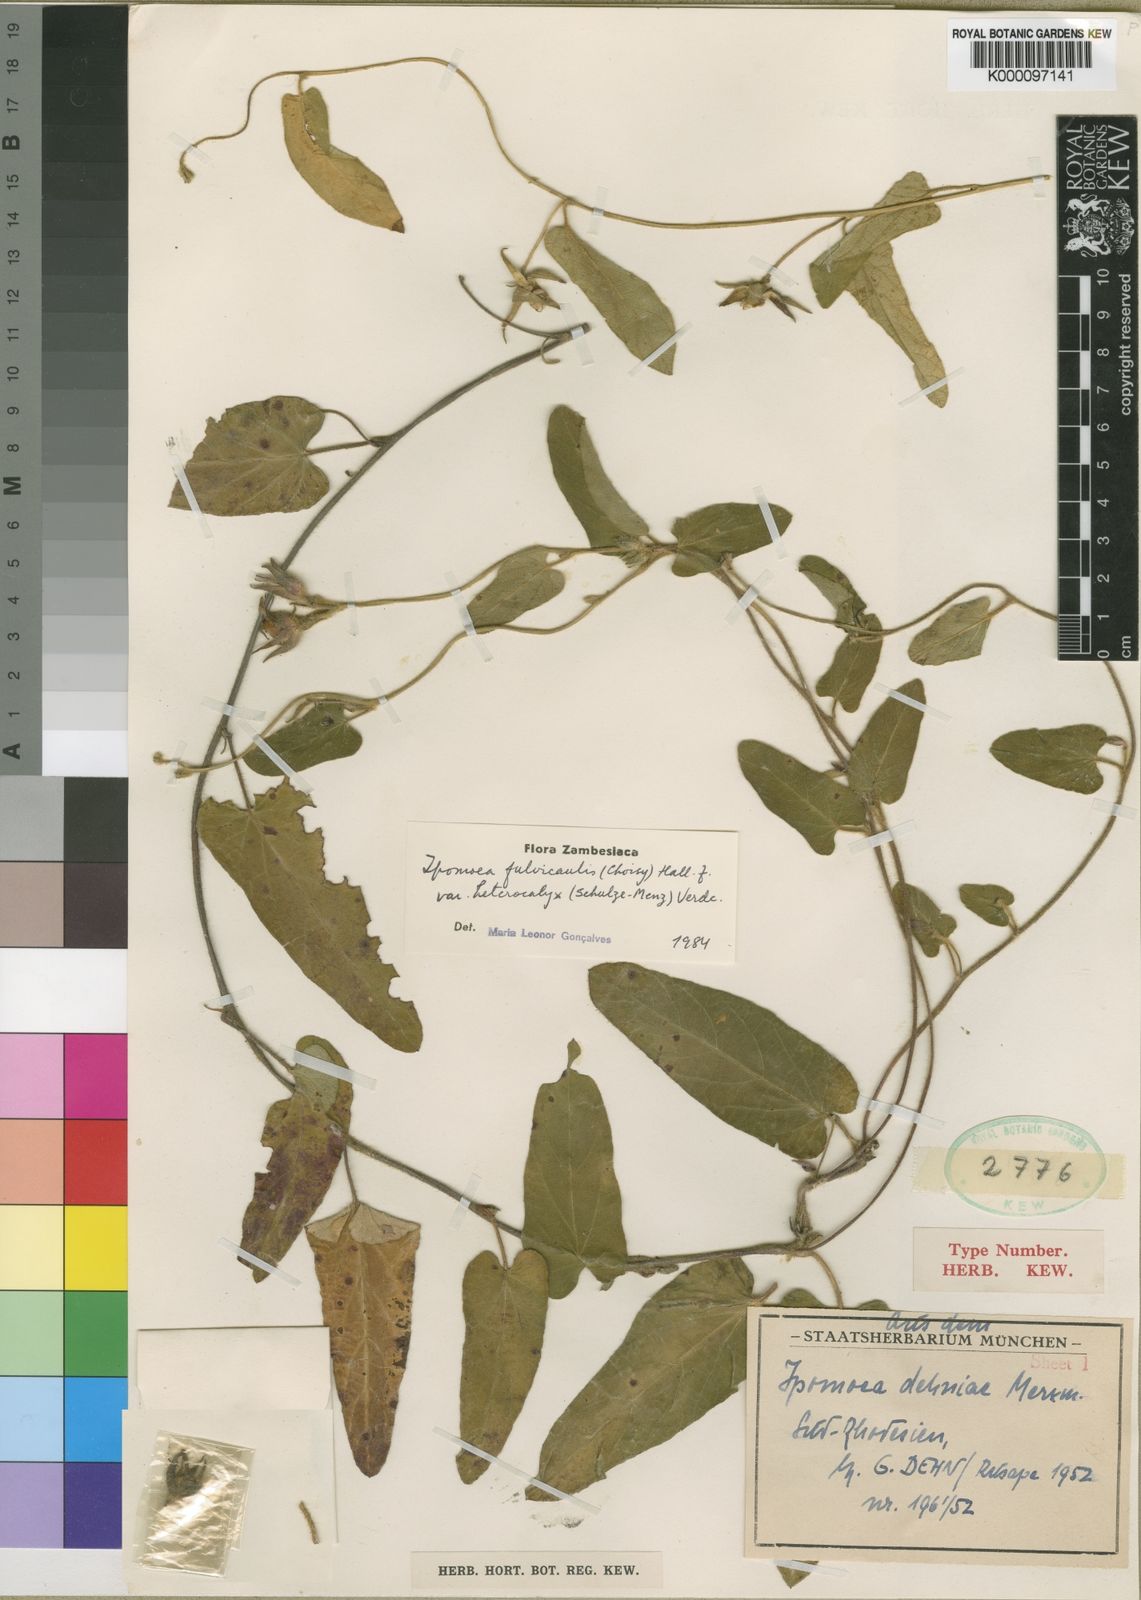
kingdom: Plantae
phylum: Tracheophyta
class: Magnoliopsida
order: Solanales
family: Convolvulaceae
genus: Ipomoea
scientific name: Ipomoea fulvicaulis
